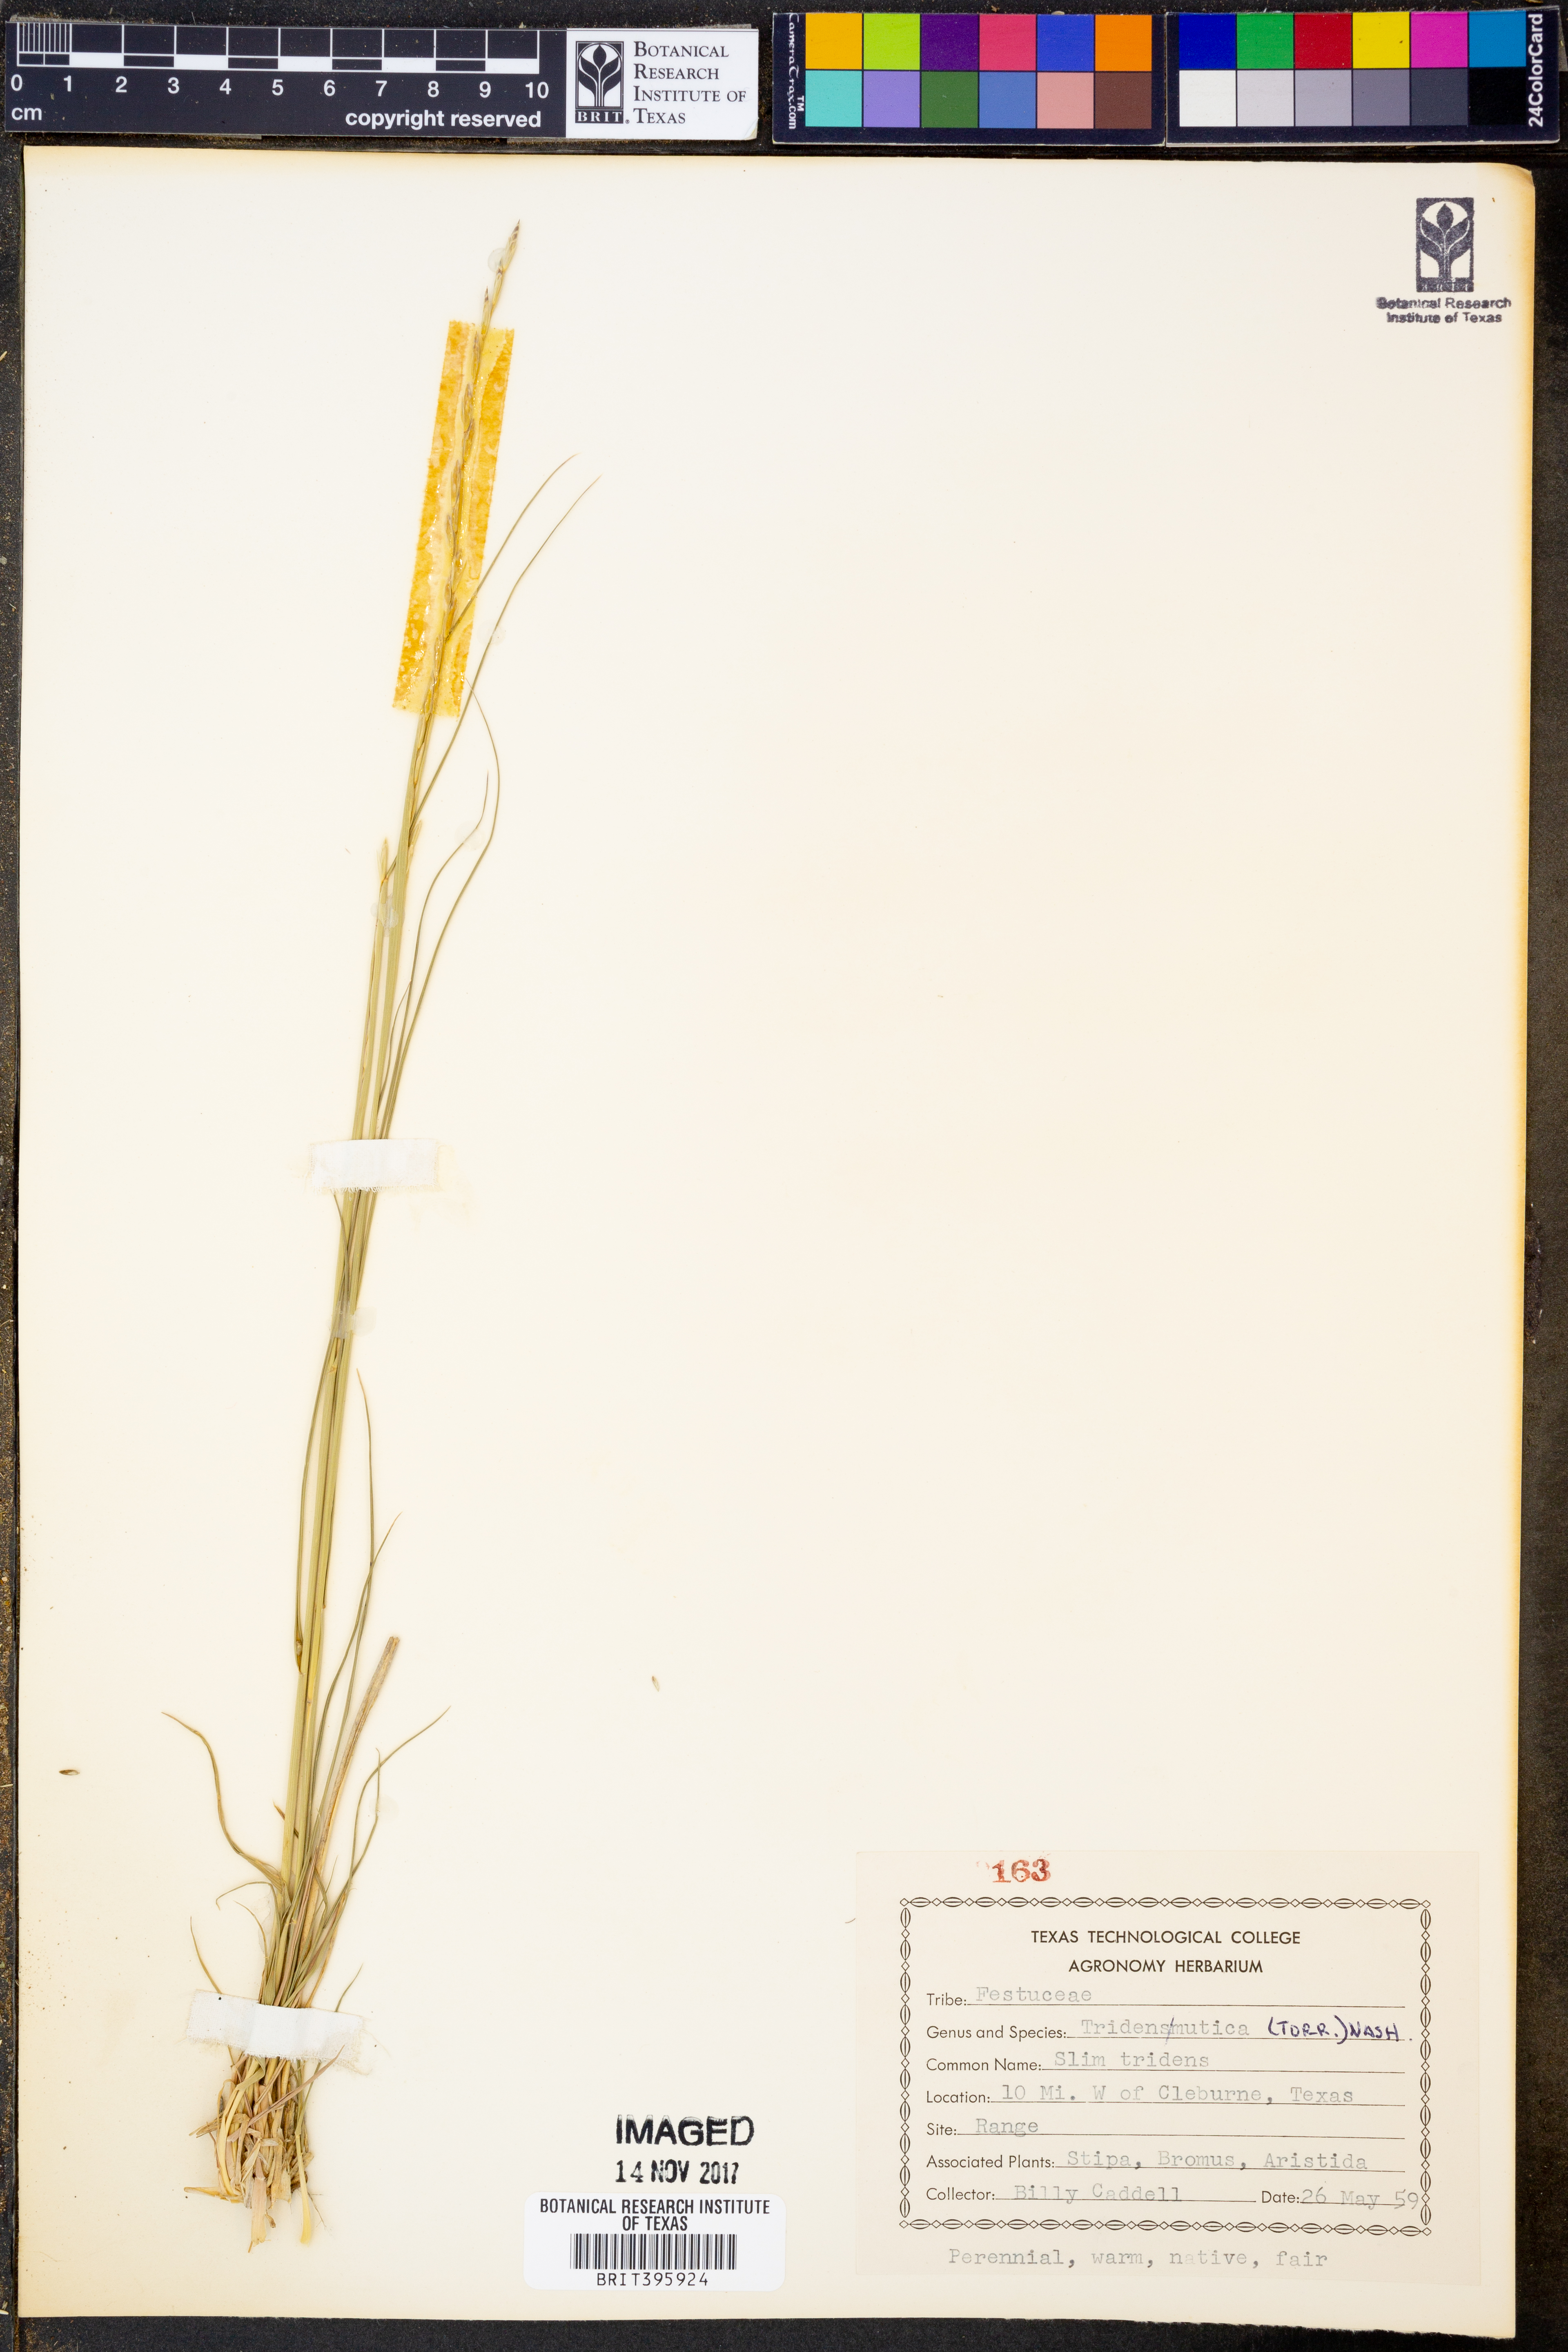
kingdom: Plantae
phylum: Tracheophyta
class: Liliopsida
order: Poales
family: Poaceae
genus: Tridentopsis
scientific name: Tridentopsis mutica
